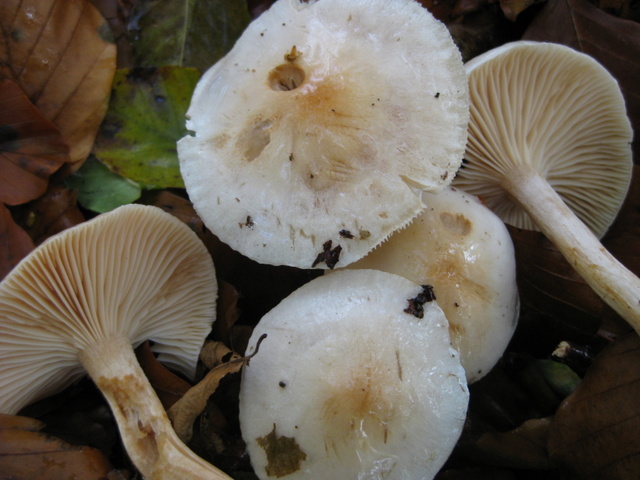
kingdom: Fungi
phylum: Basidiomycota
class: Agaricomycetes
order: Agaricales
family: Hygrophoraceae
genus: Hygrophorus
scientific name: Hygrophorus unicolor
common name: orangeøjet sneglehat
